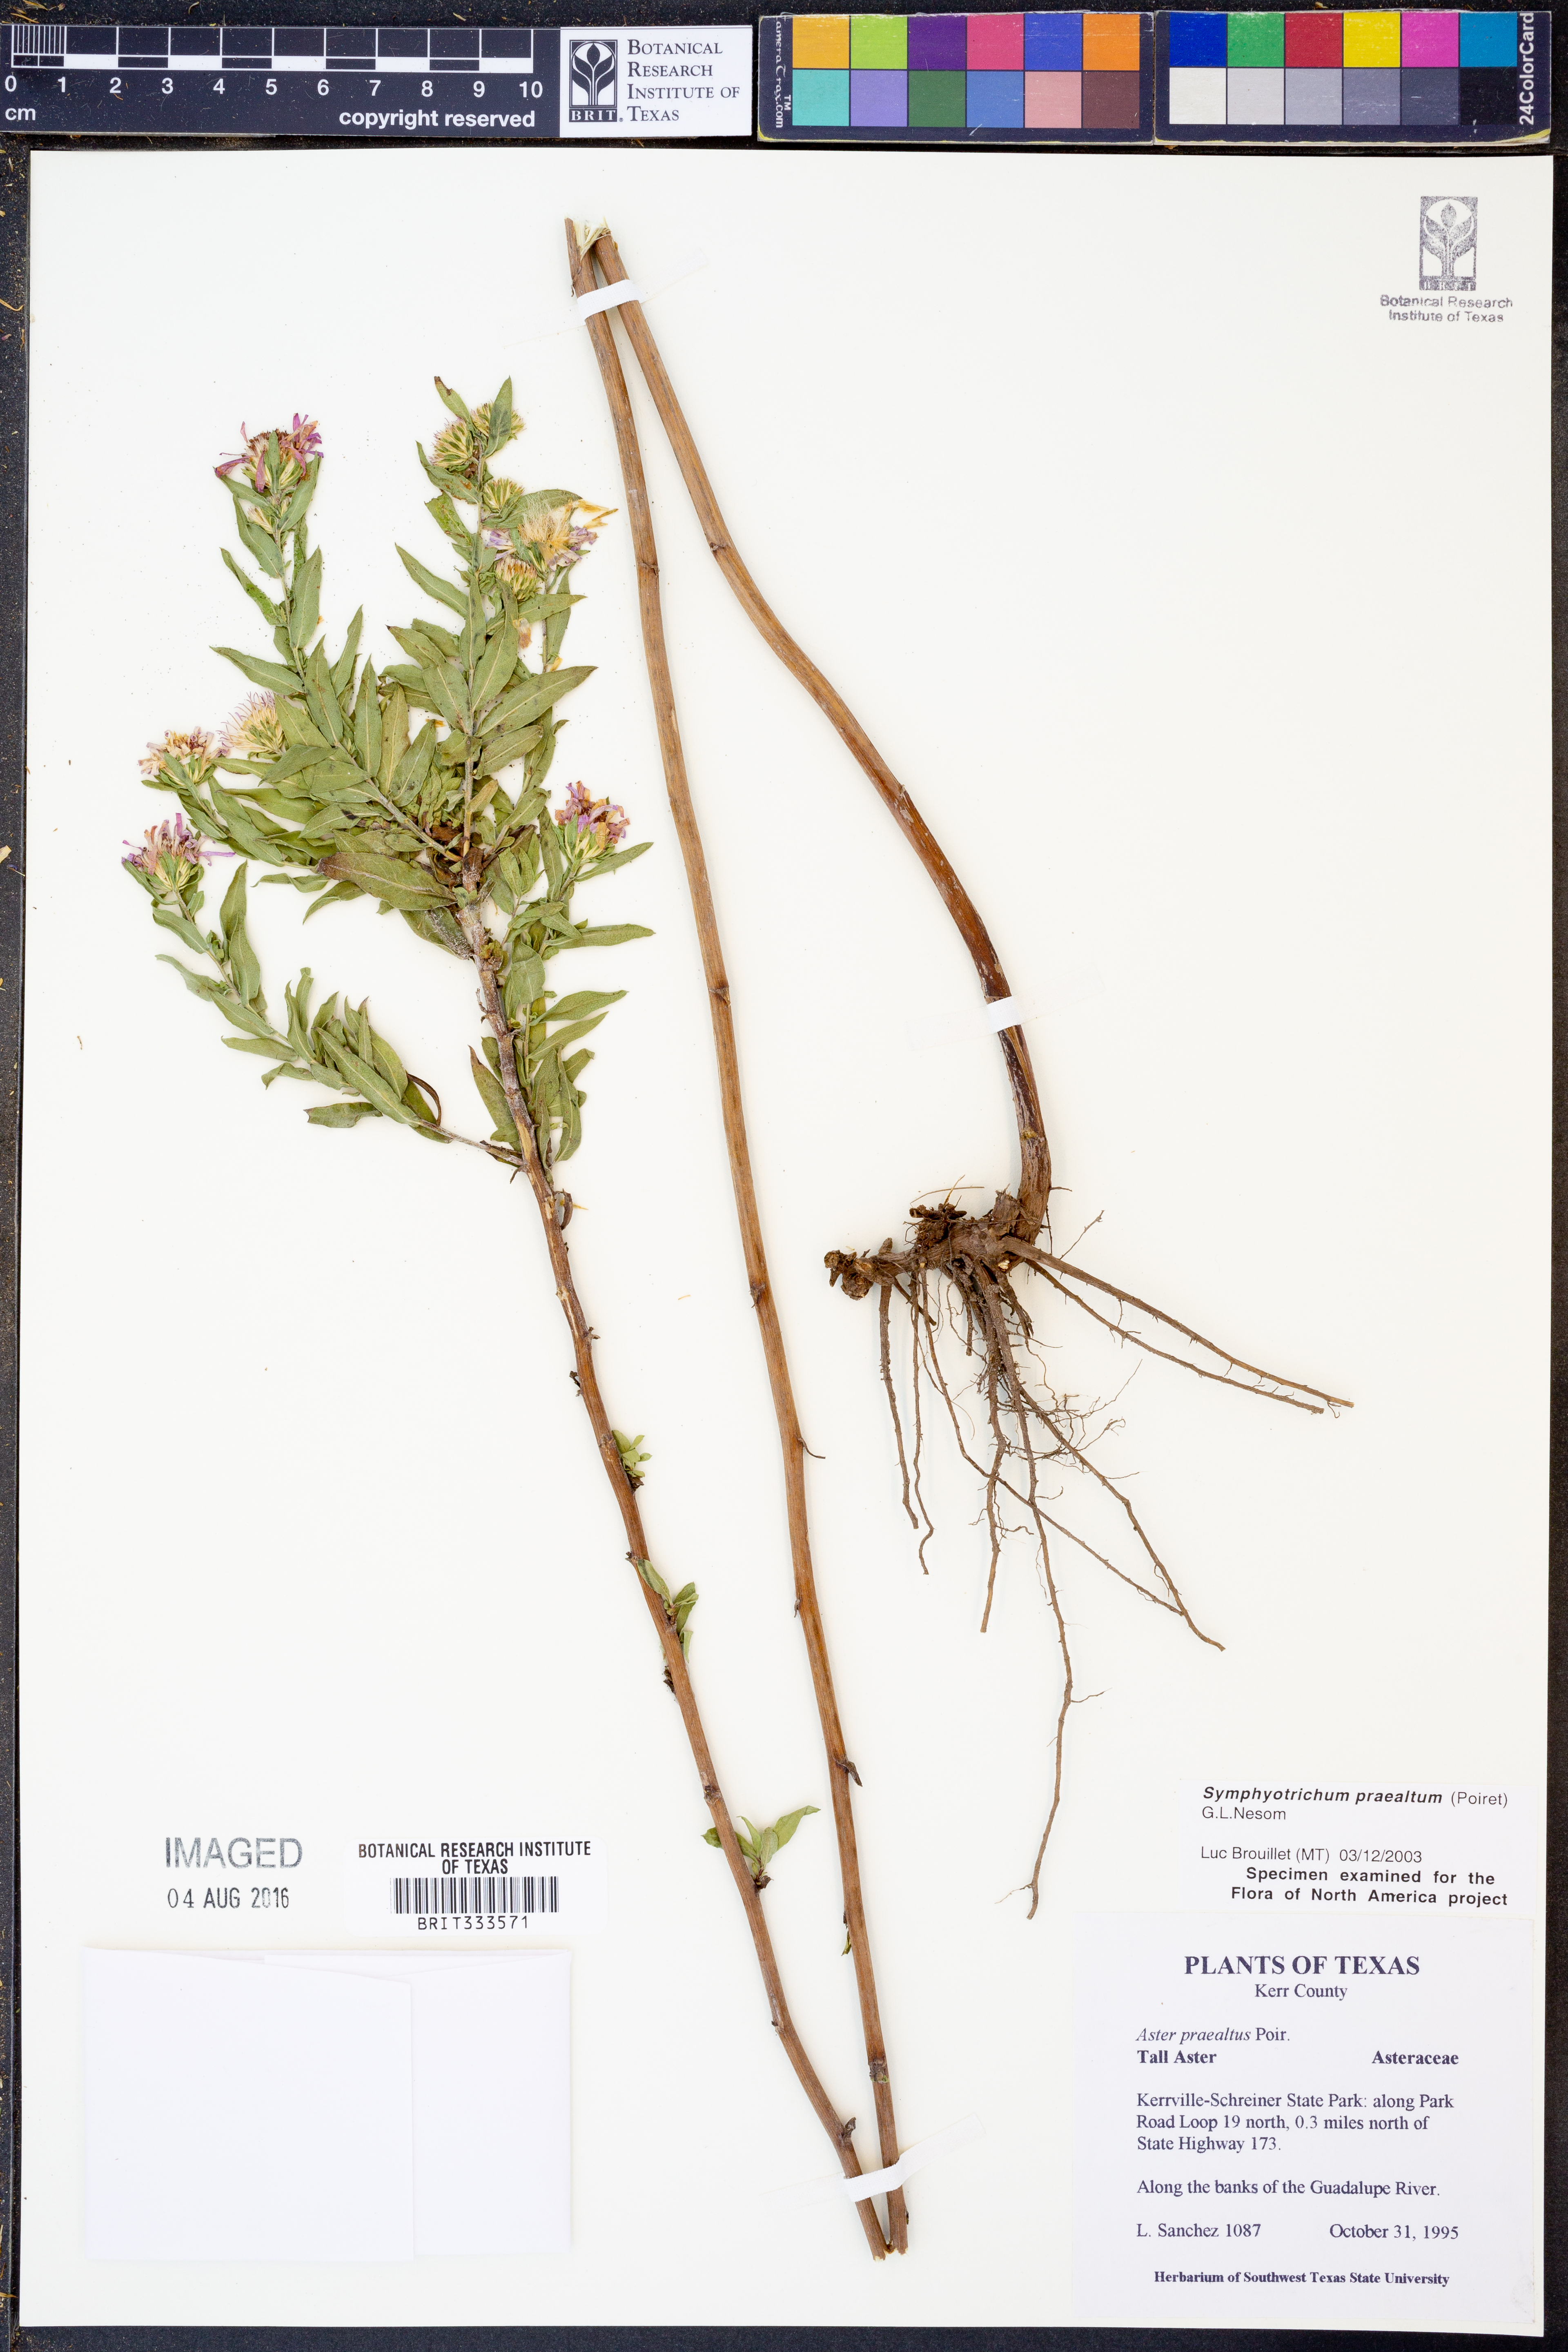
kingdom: Plantae
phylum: Tracheophyta
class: Magnoliopsida
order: Asterales
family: Asteraceae
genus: Symphyotrichum
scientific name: Symphyotrichum praealtum
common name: Willow aster
